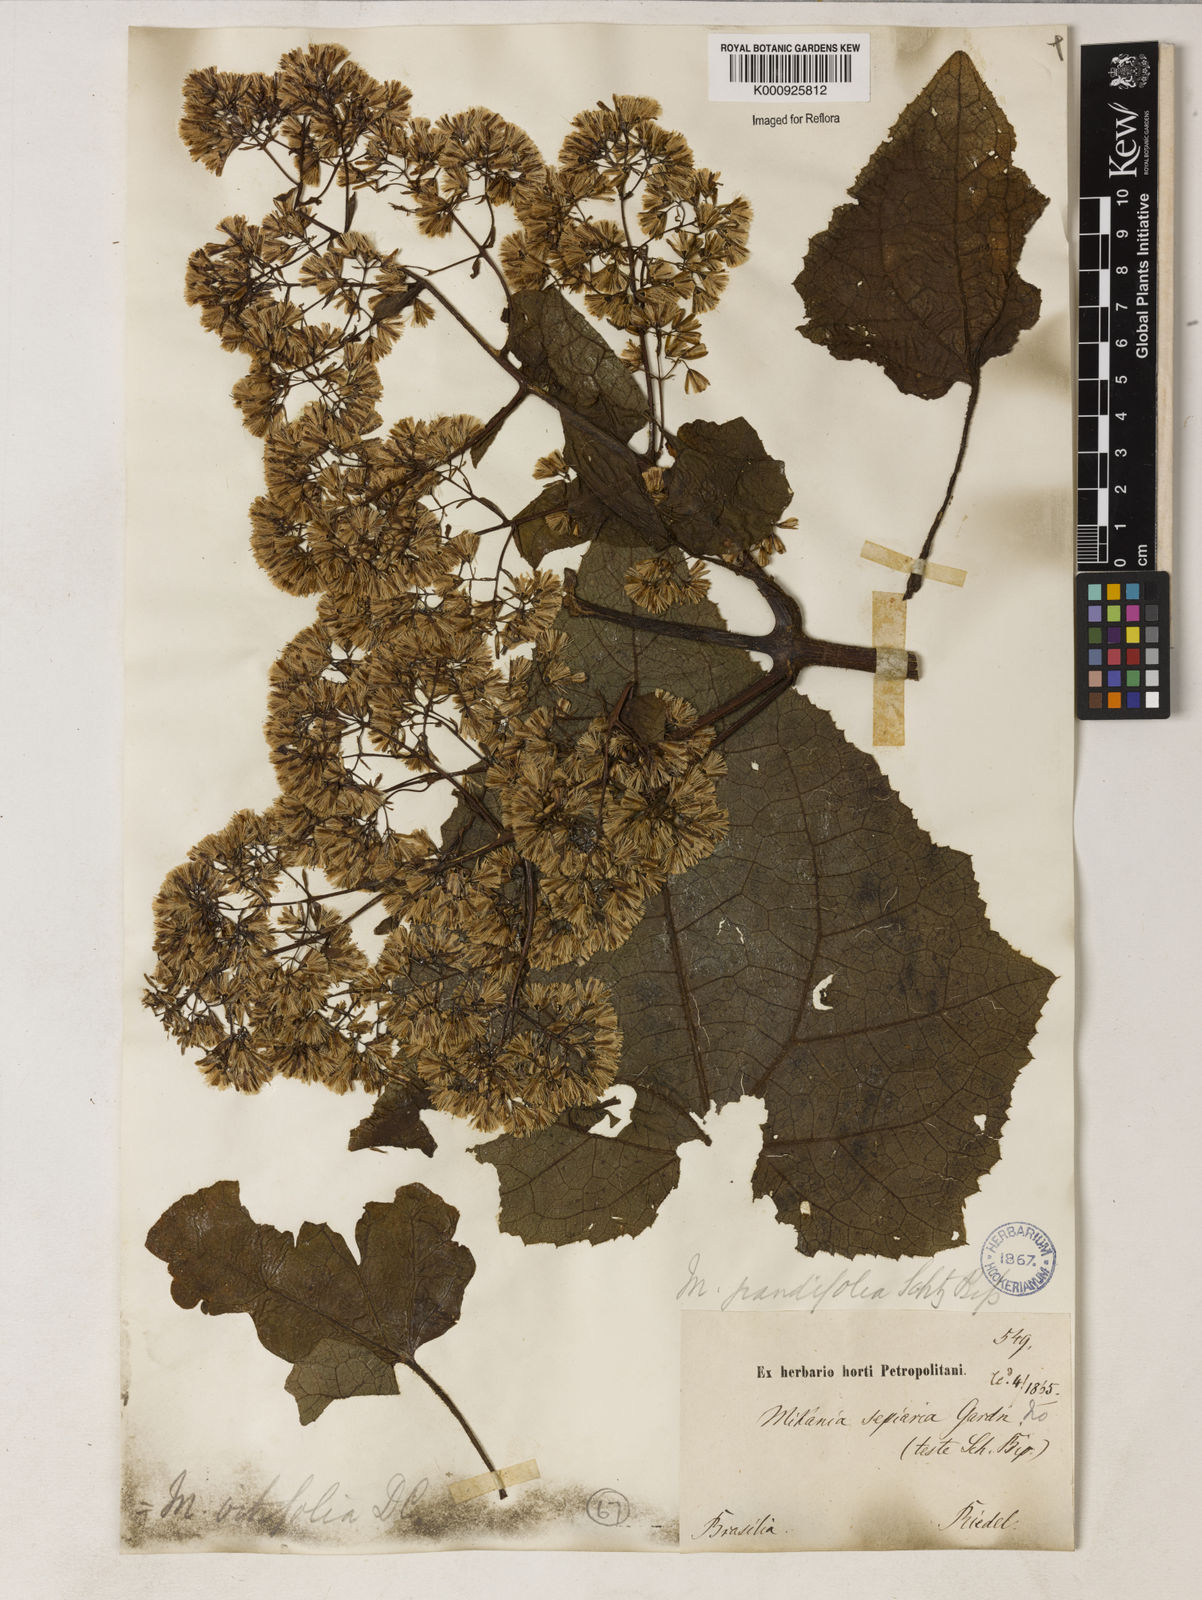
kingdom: Plantae
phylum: Tracheophyta
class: Magnoliopsida
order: Asterales
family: Asteraceae
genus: Mikania
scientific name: Mikania vitifolia
